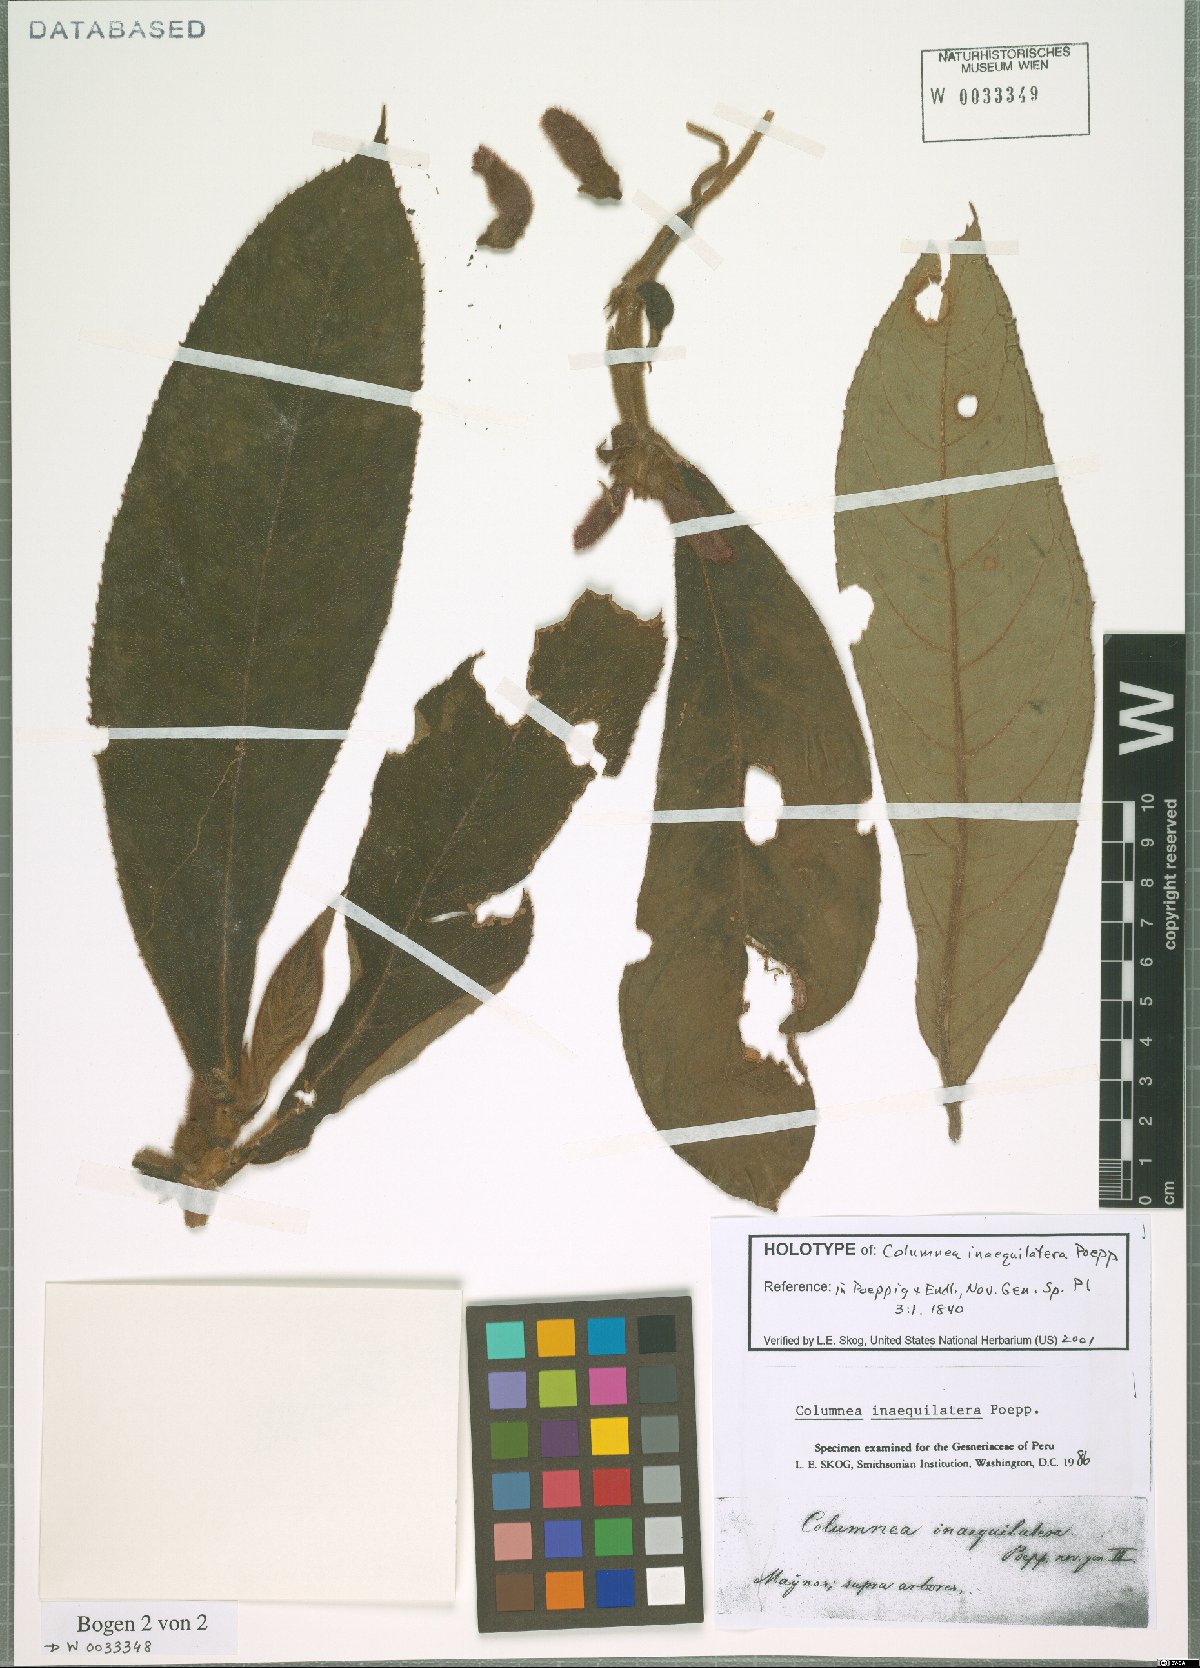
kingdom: Plantae
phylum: Tracheophyta
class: Magnoliopsida
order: Lamiales
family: Gesneriaceae
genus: Columnea
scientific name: Columnea inaequilatera
